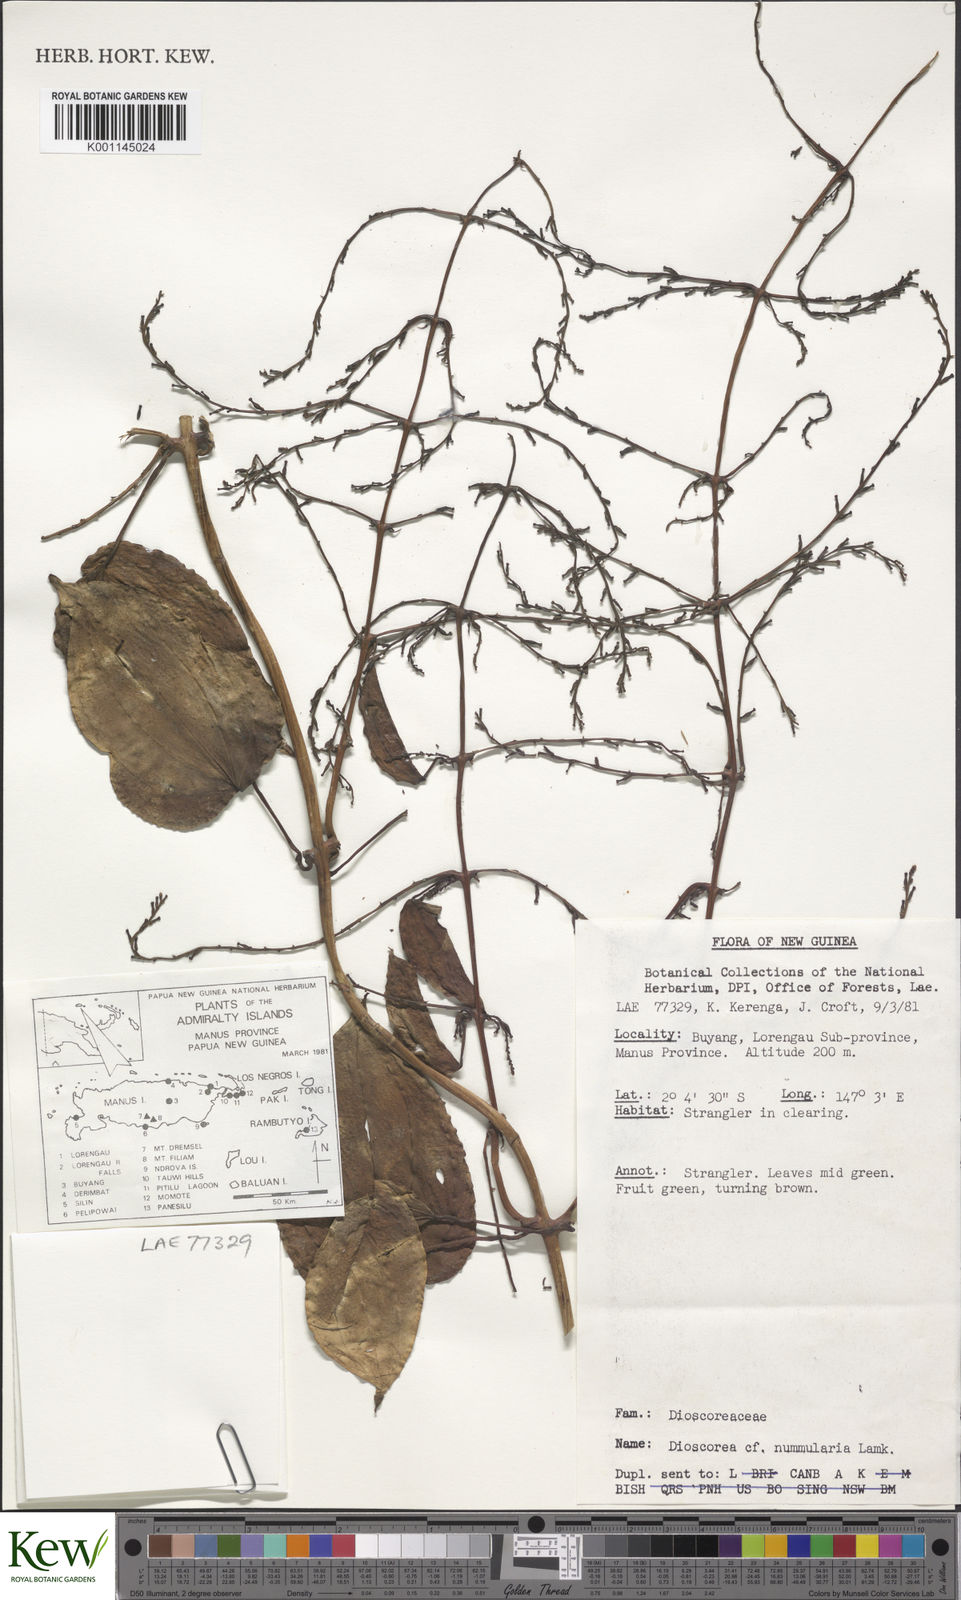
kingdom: Plantae
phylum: Tracheophyta
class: Liliopsida
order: Dioscoreales
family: Dioscoreaceae
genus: Dioscorea
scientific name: Dioscorea nummularia
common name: Pacific yam
